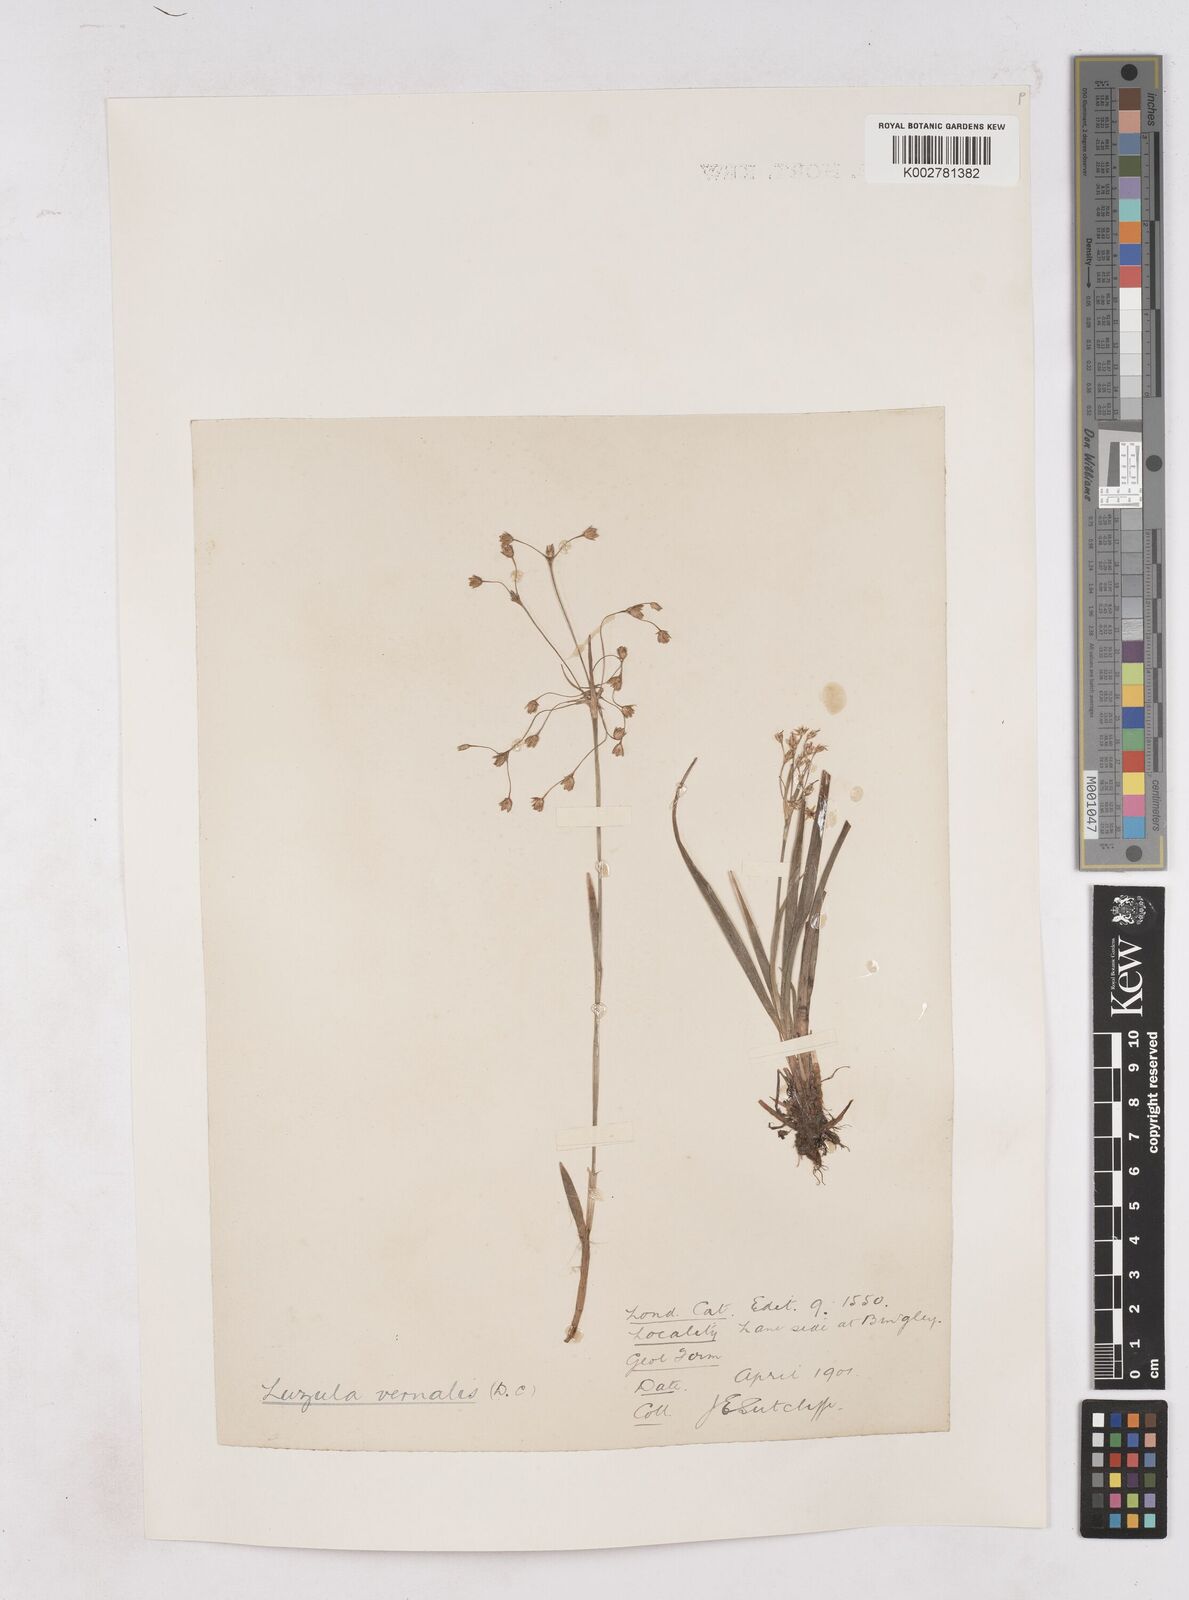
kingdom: Plantae
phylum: Tracheophyta
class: Liliopsida
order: Poales
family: Juncaceae
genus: Luzula
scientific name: Luzula pilosa
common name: Hairy wood-rush
